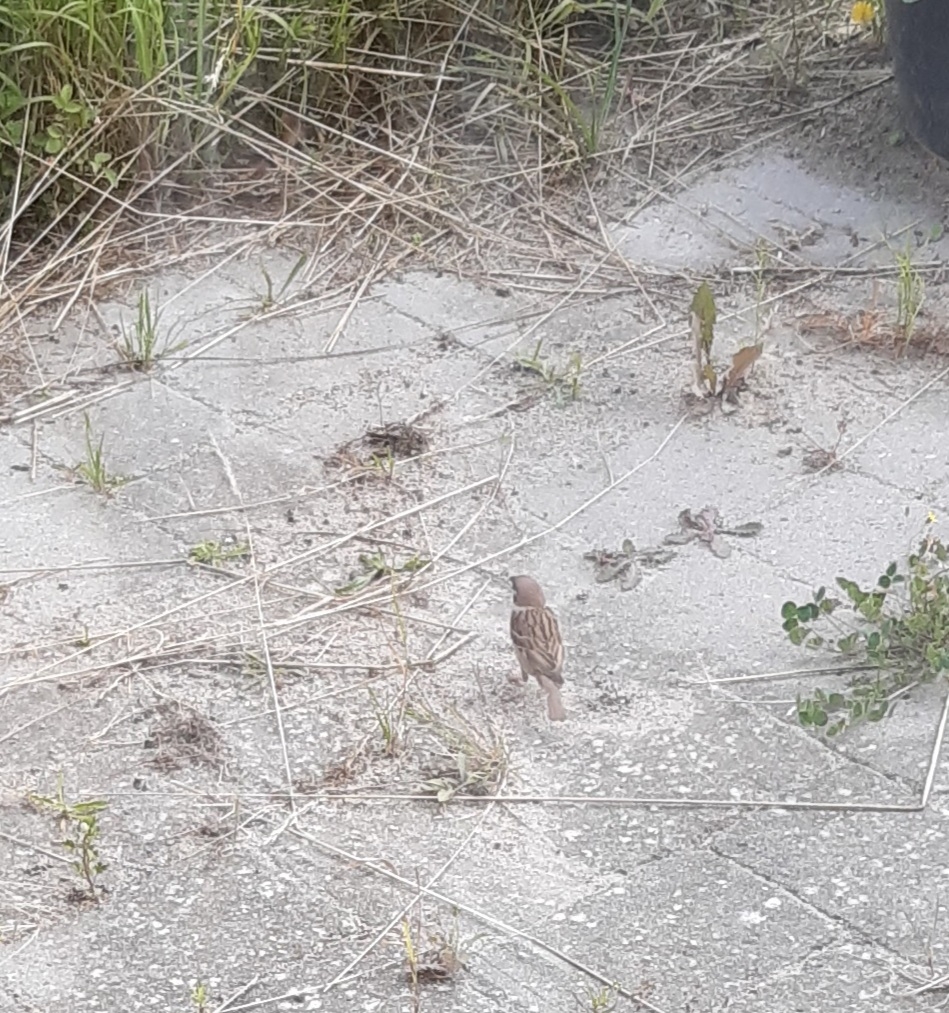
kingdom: Animalia
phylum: Chordata
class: Aves
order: Passeriformes
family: Passeridae
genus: Passer
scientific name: Passer montanus
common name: Skovspurv
